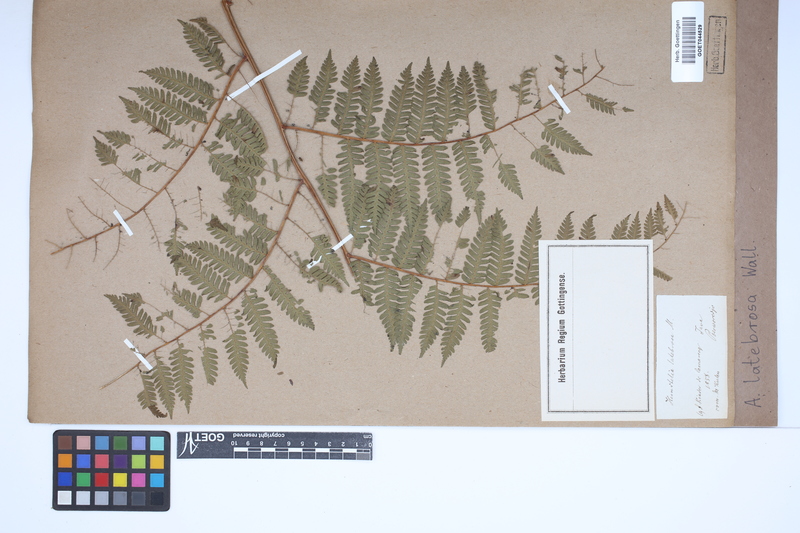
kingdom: Plantae
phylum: Tracheophyta
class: Polypodiopsida
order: Cyatheales
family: Cyatheaceae
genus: Alsophila
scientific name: Alsophila nilgirensis
